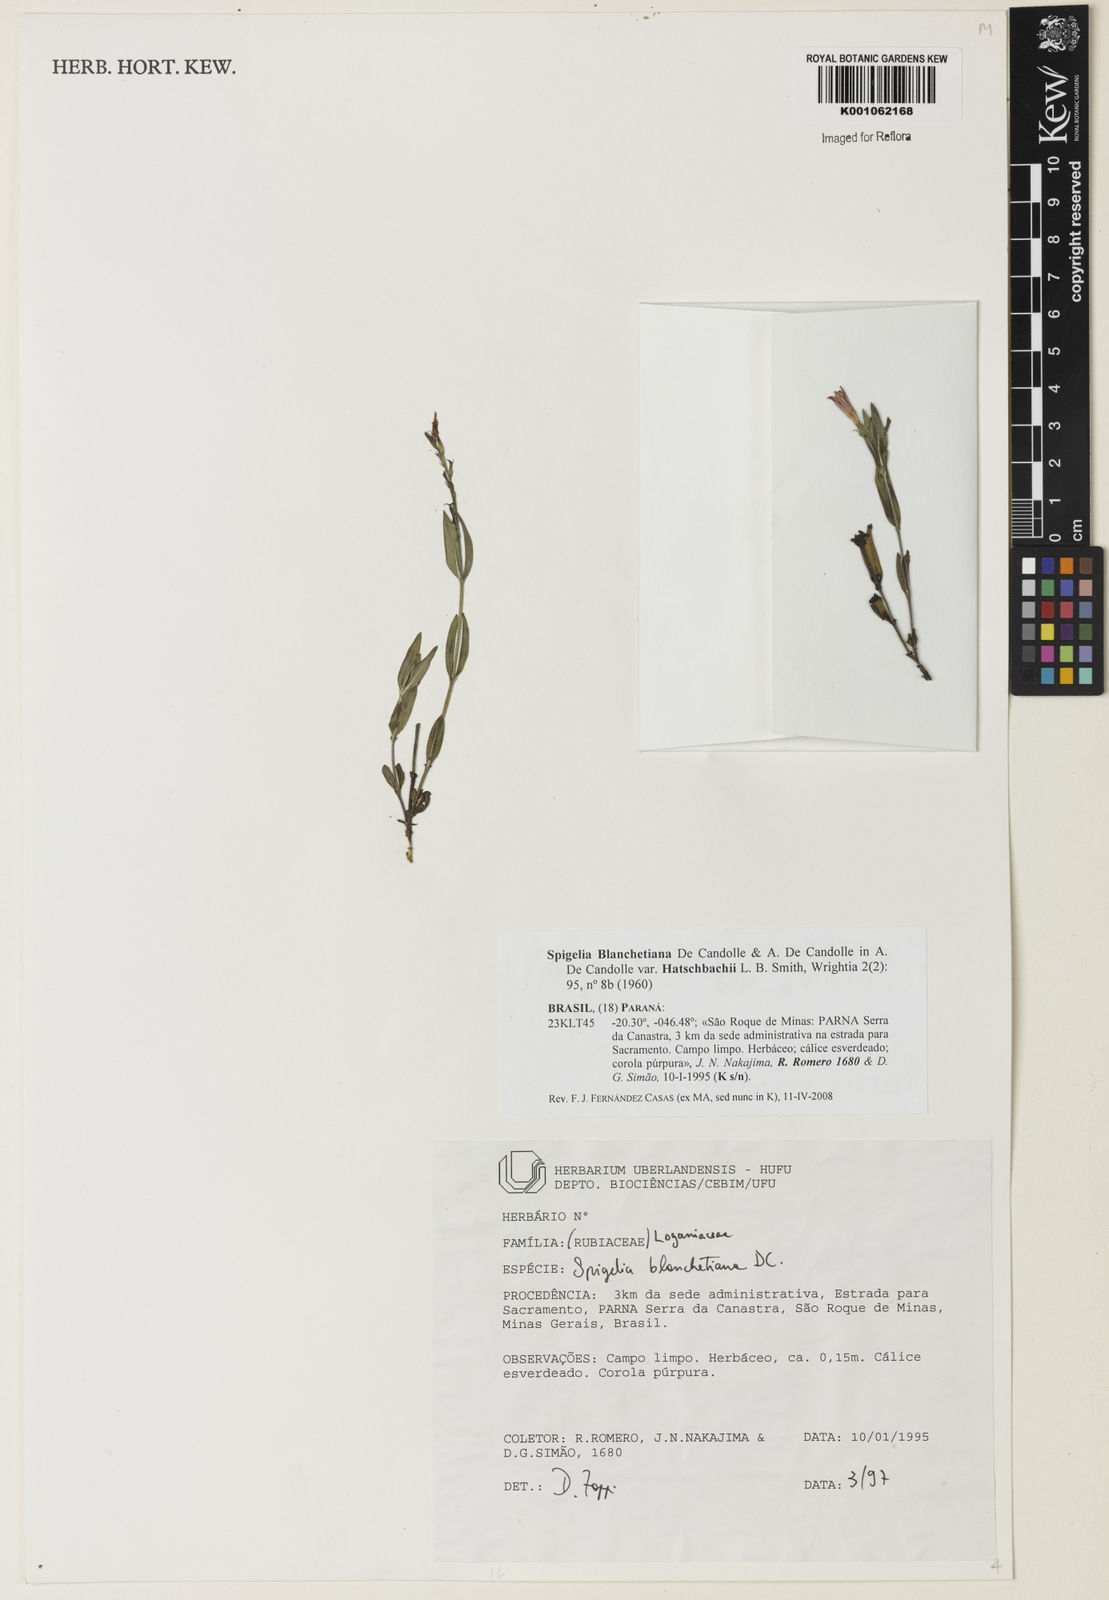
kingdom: Plantae
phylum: Tracheophyta
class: Magnoliopsida
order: Gentianales
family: Loganiaceae
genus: Spigelia
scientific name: Spigelia blanchetiana
